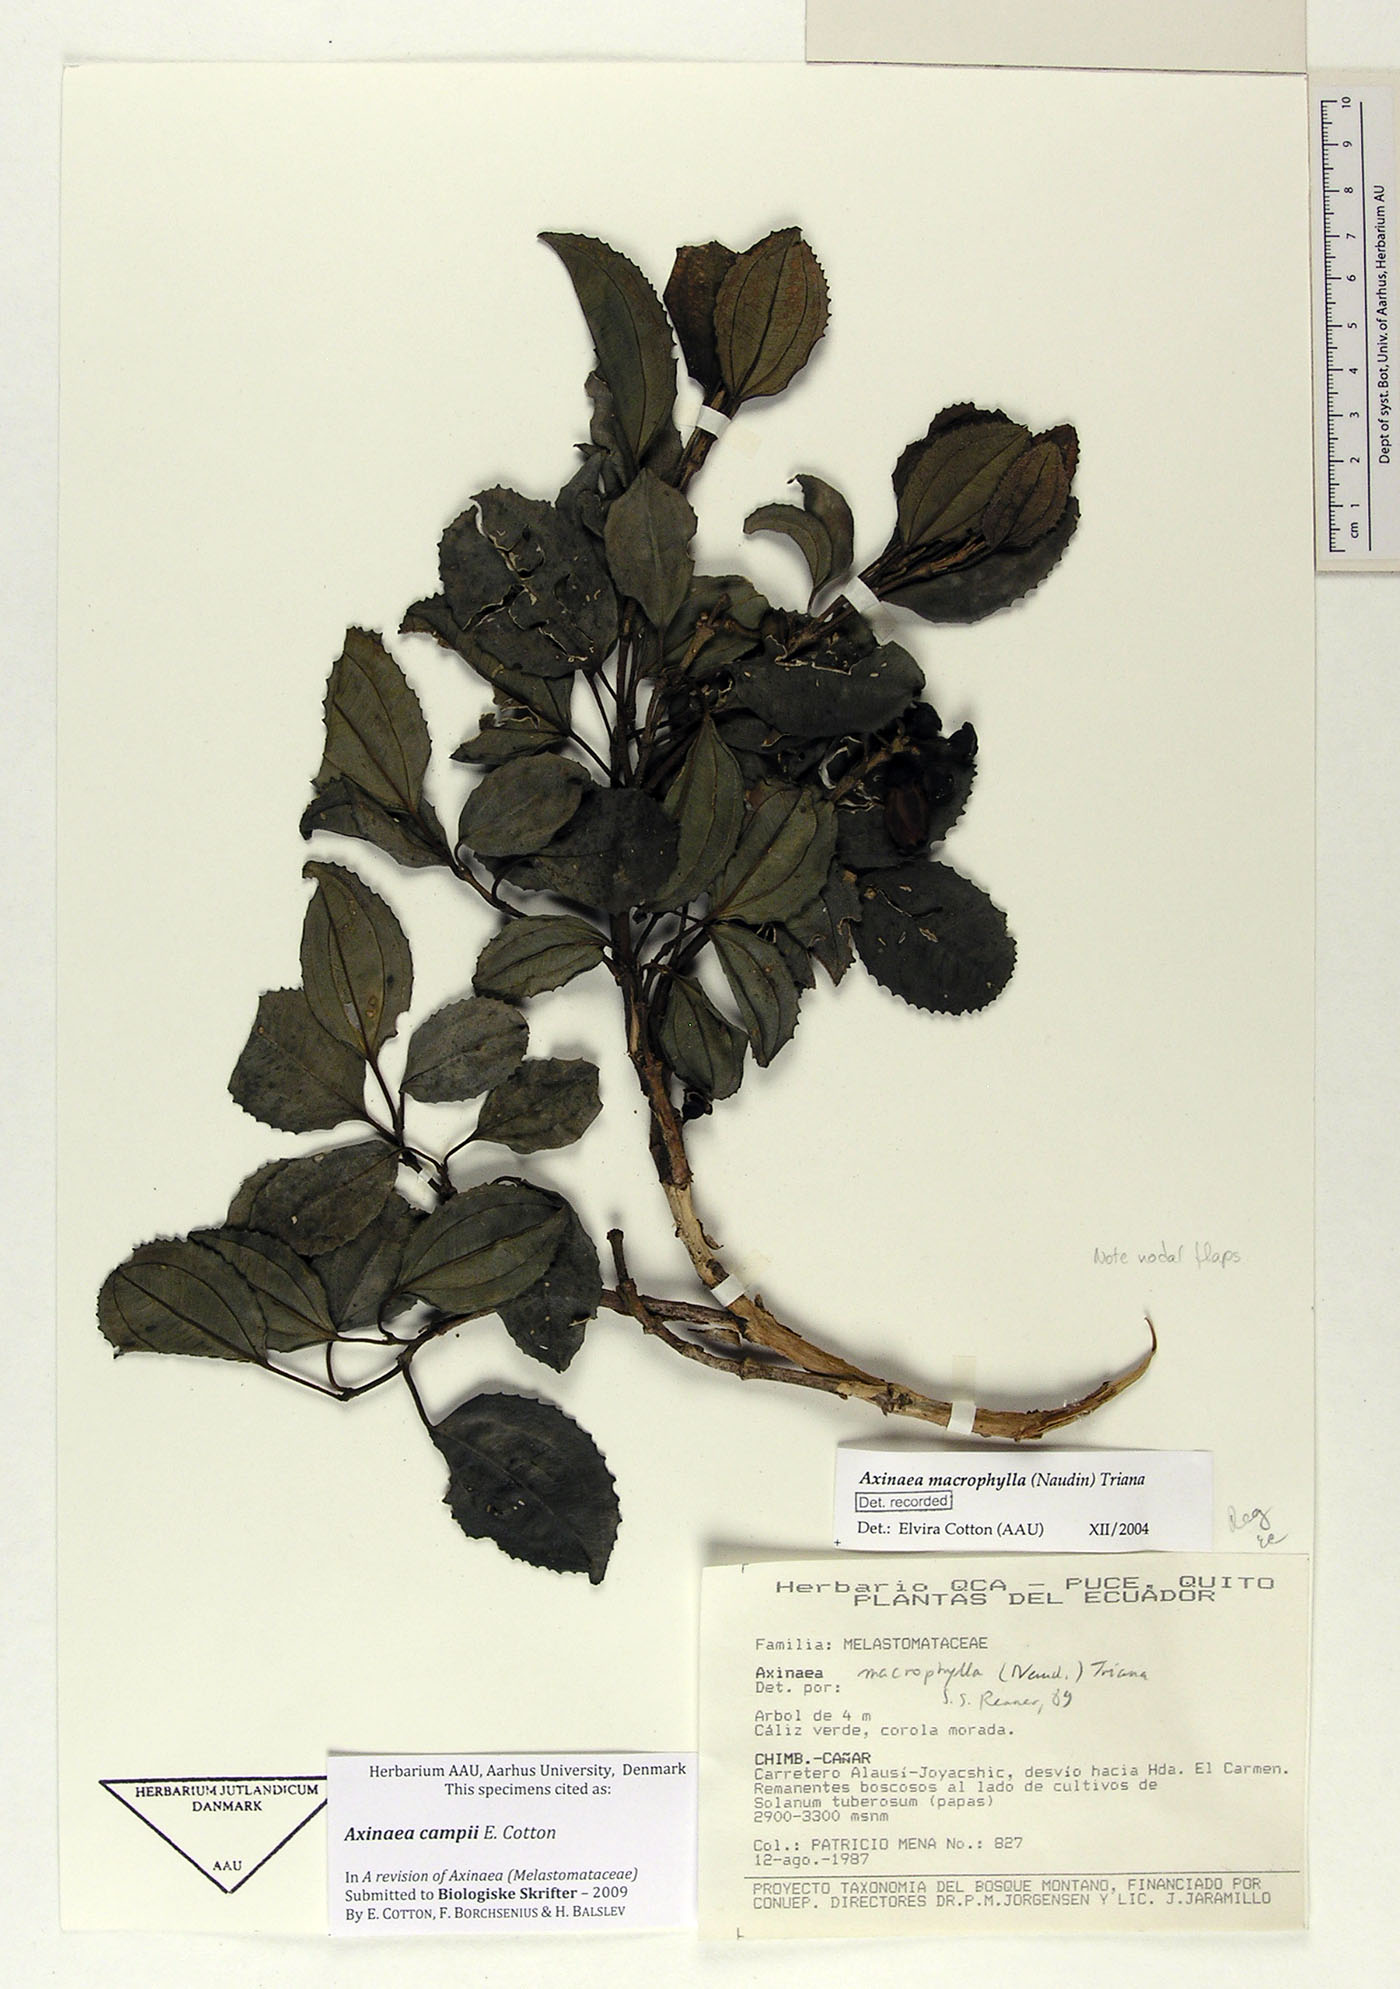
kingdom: Plantae
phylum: Tracheophyta
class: Magnoliopsida
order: Myrtales
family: Melastomataceae
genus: Axinaea
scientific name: Axinaea campii
